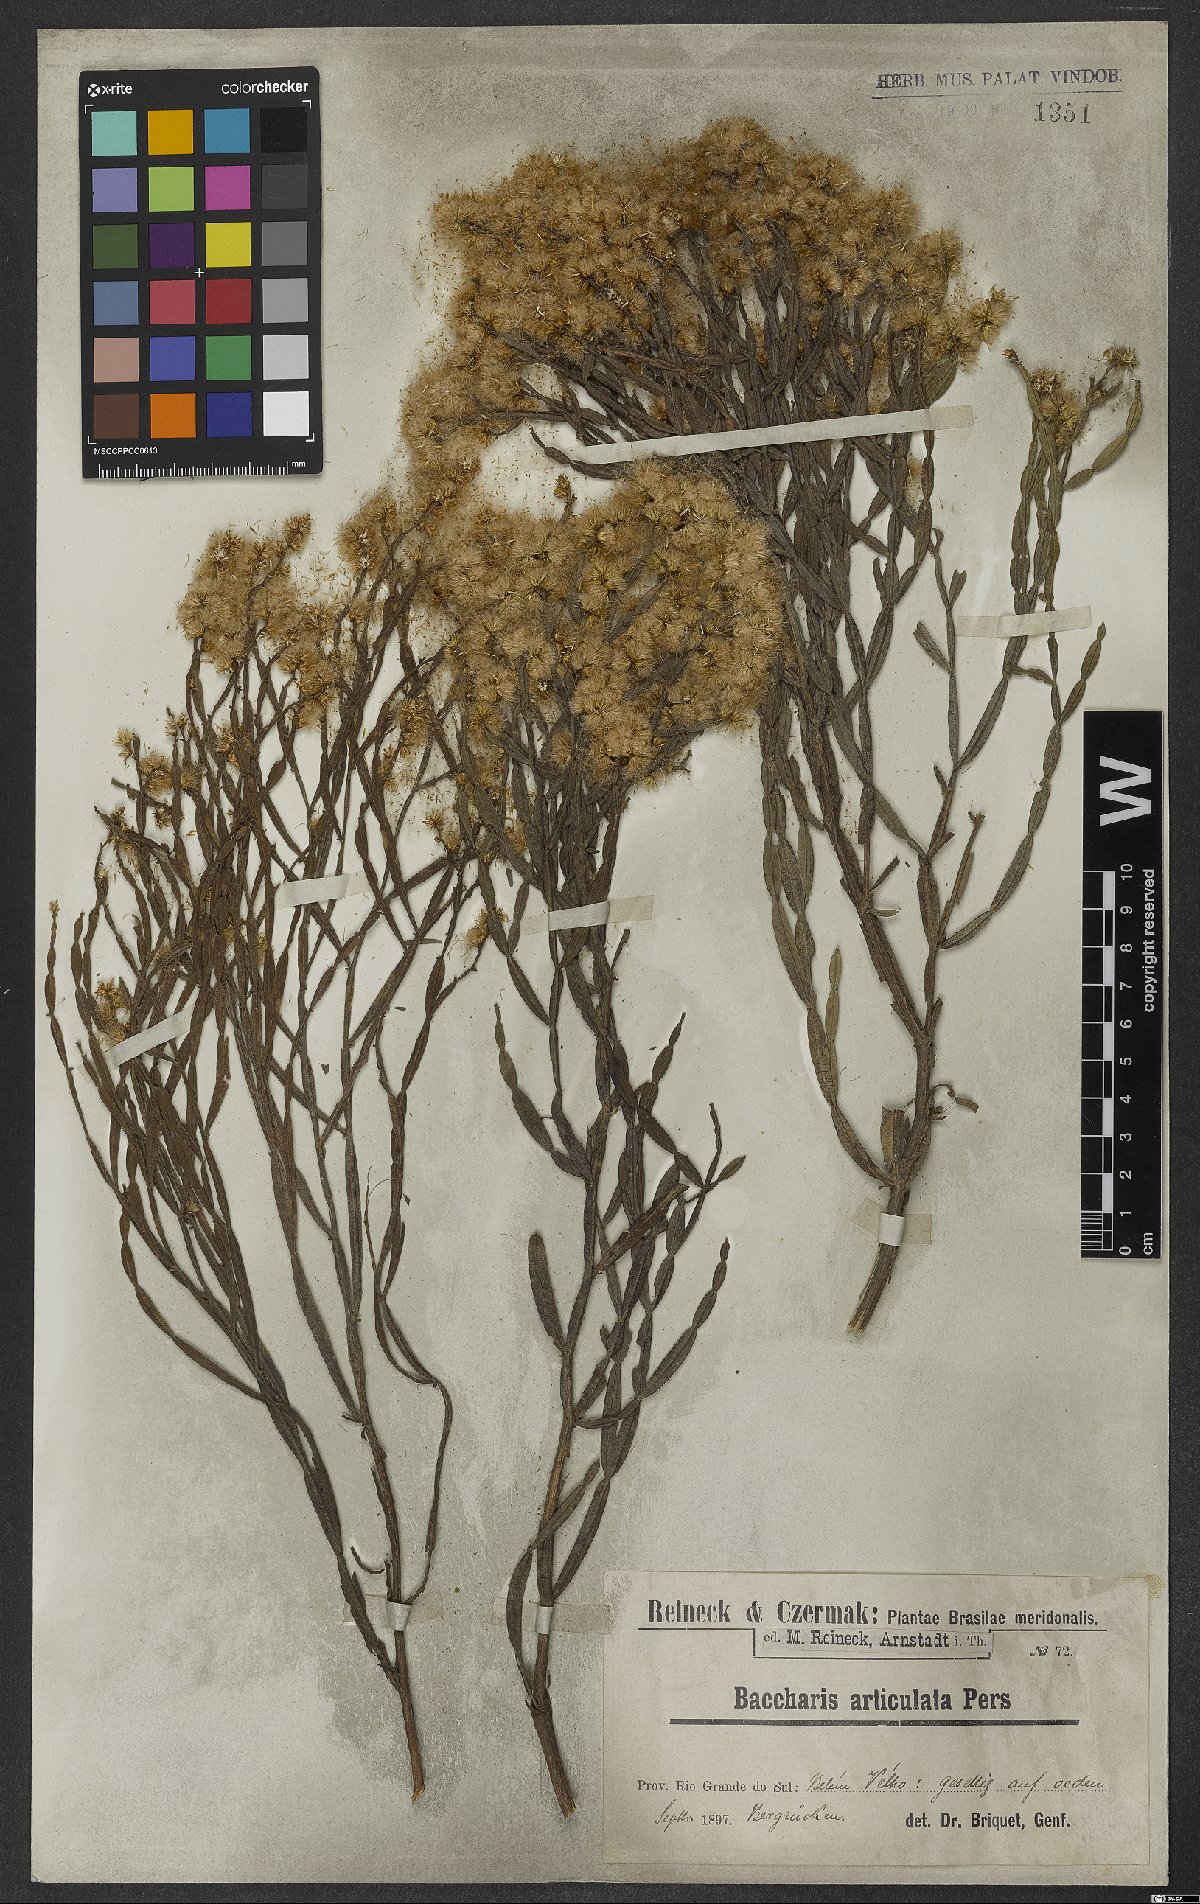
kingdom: Plantae
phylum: Tracheophyta
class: Magnoliopsida
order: Asterales
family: Asteraceae
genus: Baccharis
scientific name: Baccharis articulata
